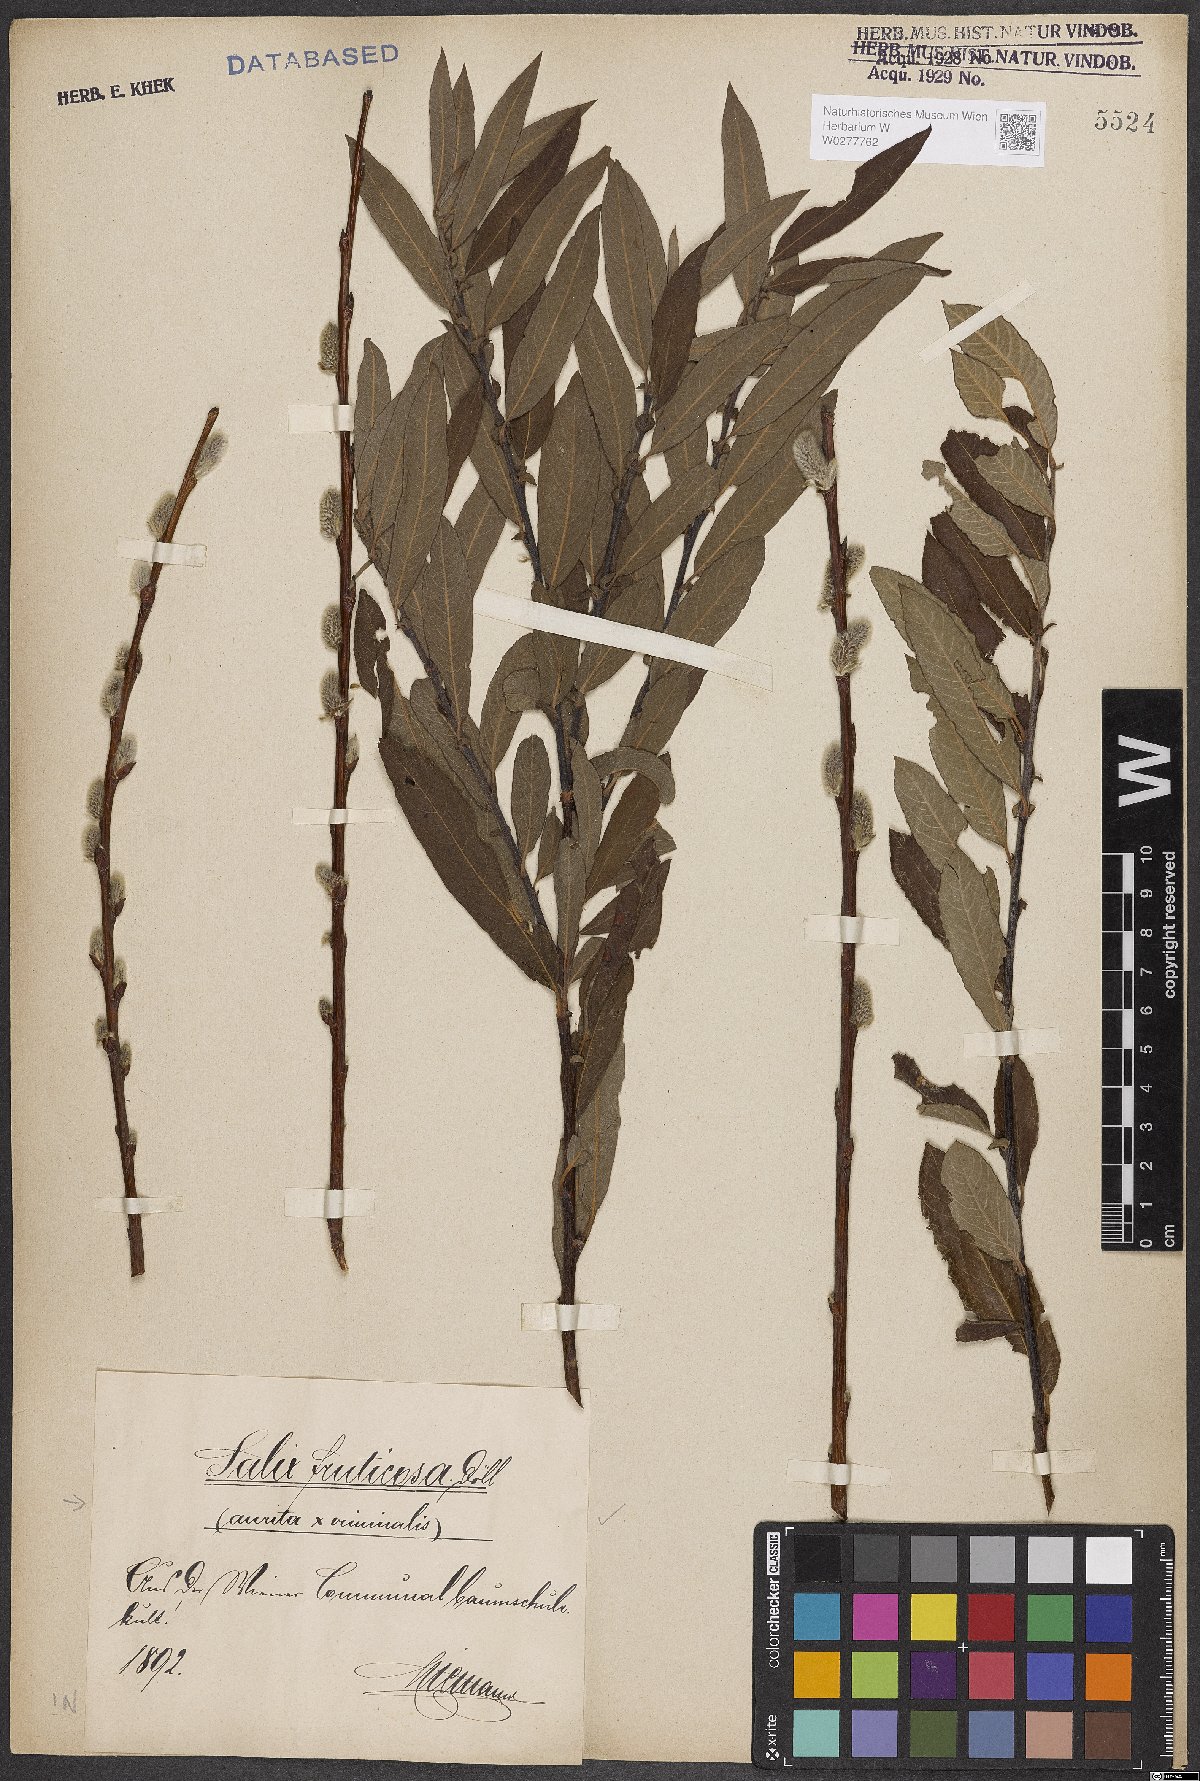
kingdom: Plantae
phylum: Tracheophyta
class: Magnoliopsida
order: Malpighiales
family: Salicaceae
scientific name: Salicaceae
